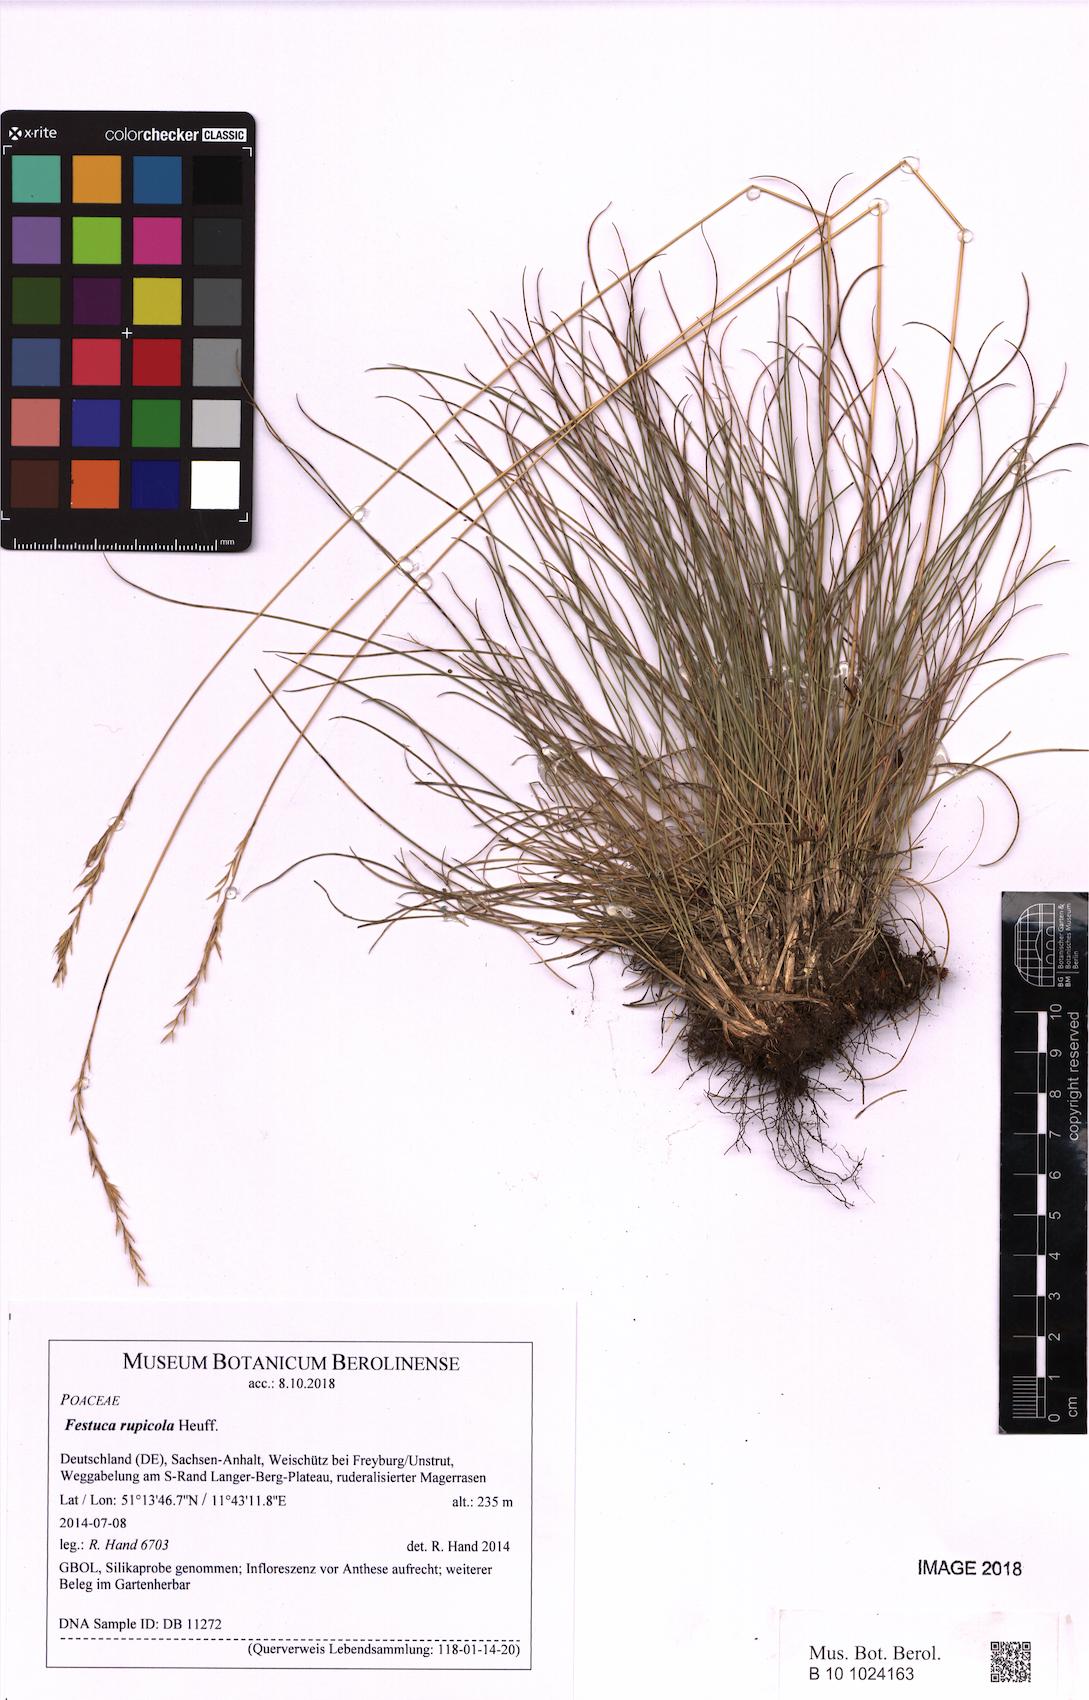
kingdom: Plantae
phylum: Tracheophyta
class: Liliopsida
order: Poales
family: Poaceae
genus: Festuca
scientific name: Festuca rupicola
